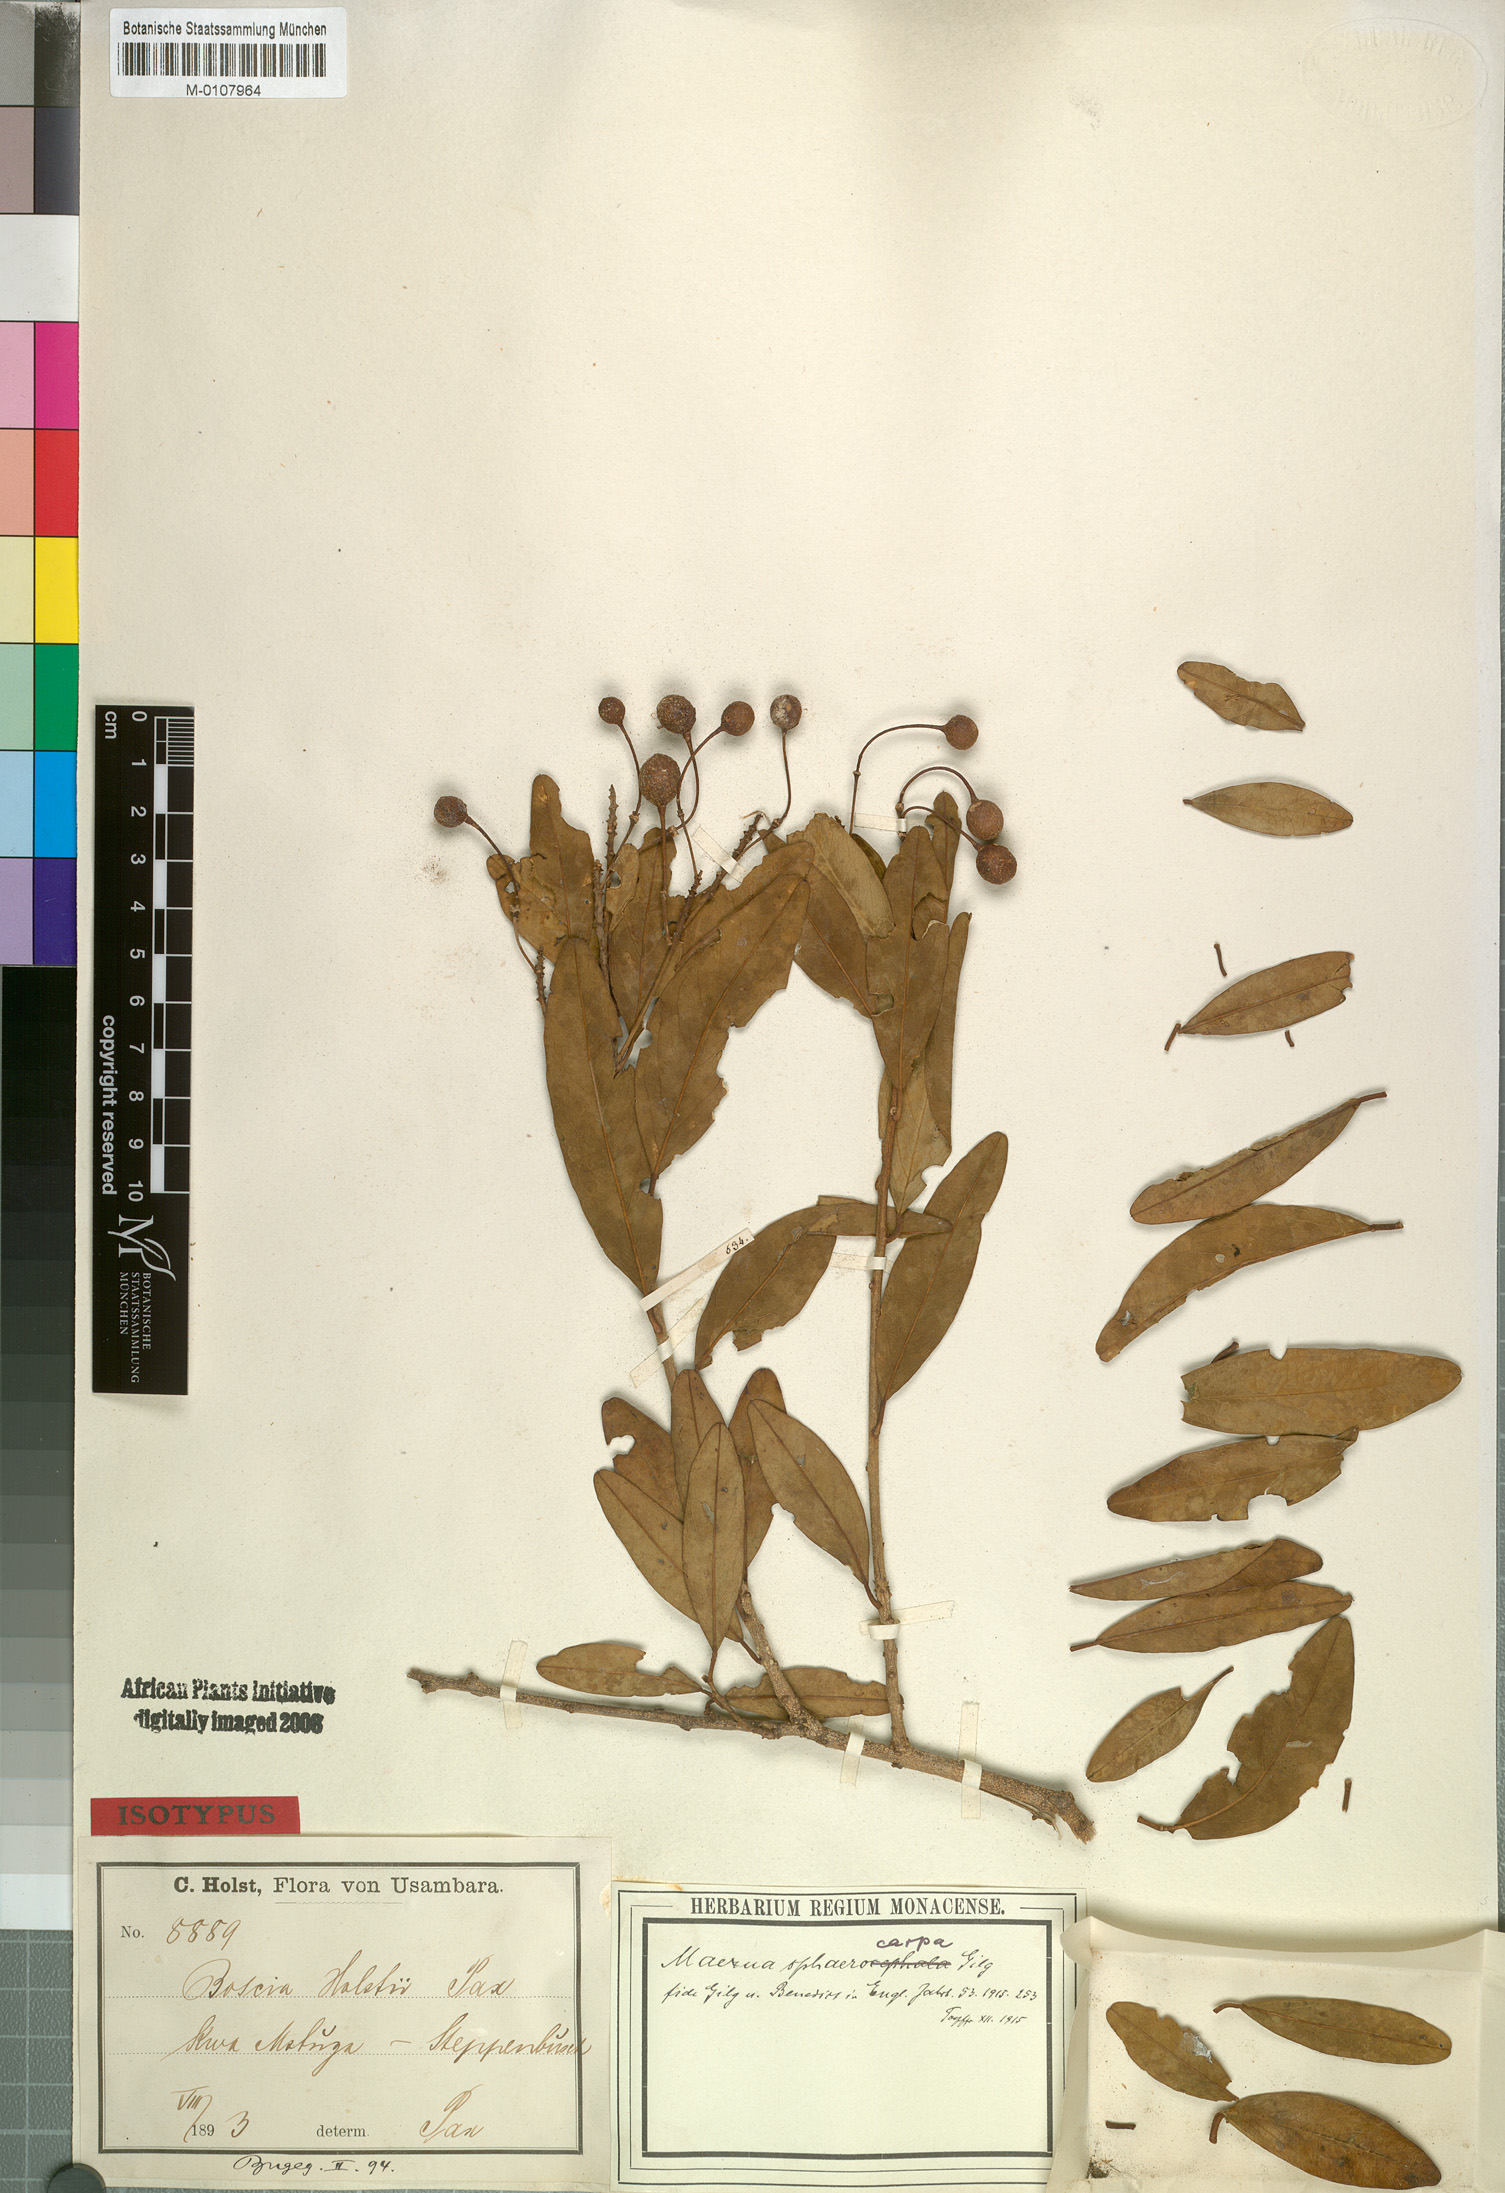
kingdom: Plantae
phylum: Tracheophyta
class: Magnoliopsida
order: Brassicales
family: Capparaceae
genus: Maerua
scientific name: Maerua triphylla
